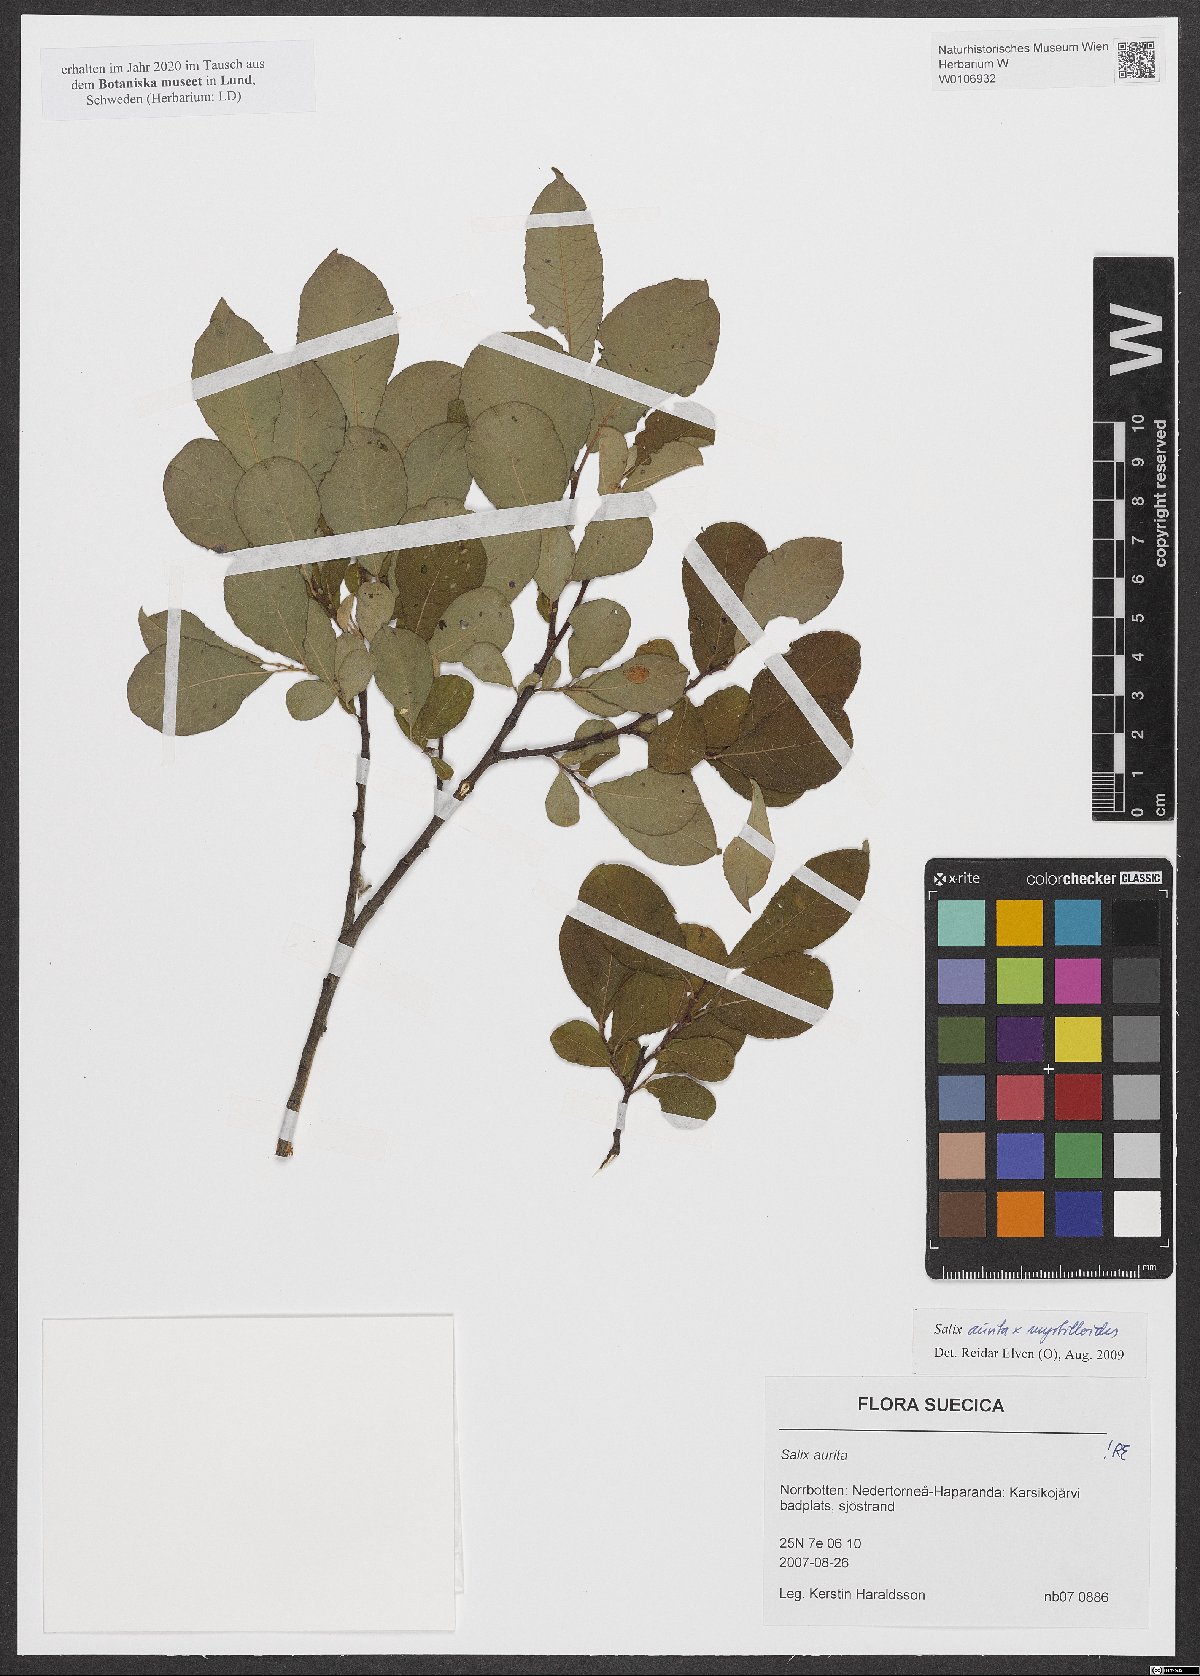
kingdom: Plantae
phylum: Tracheophyta
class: Magnoliopsida
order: Malpighiales
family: Salicaceae
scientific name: Salicaceae
